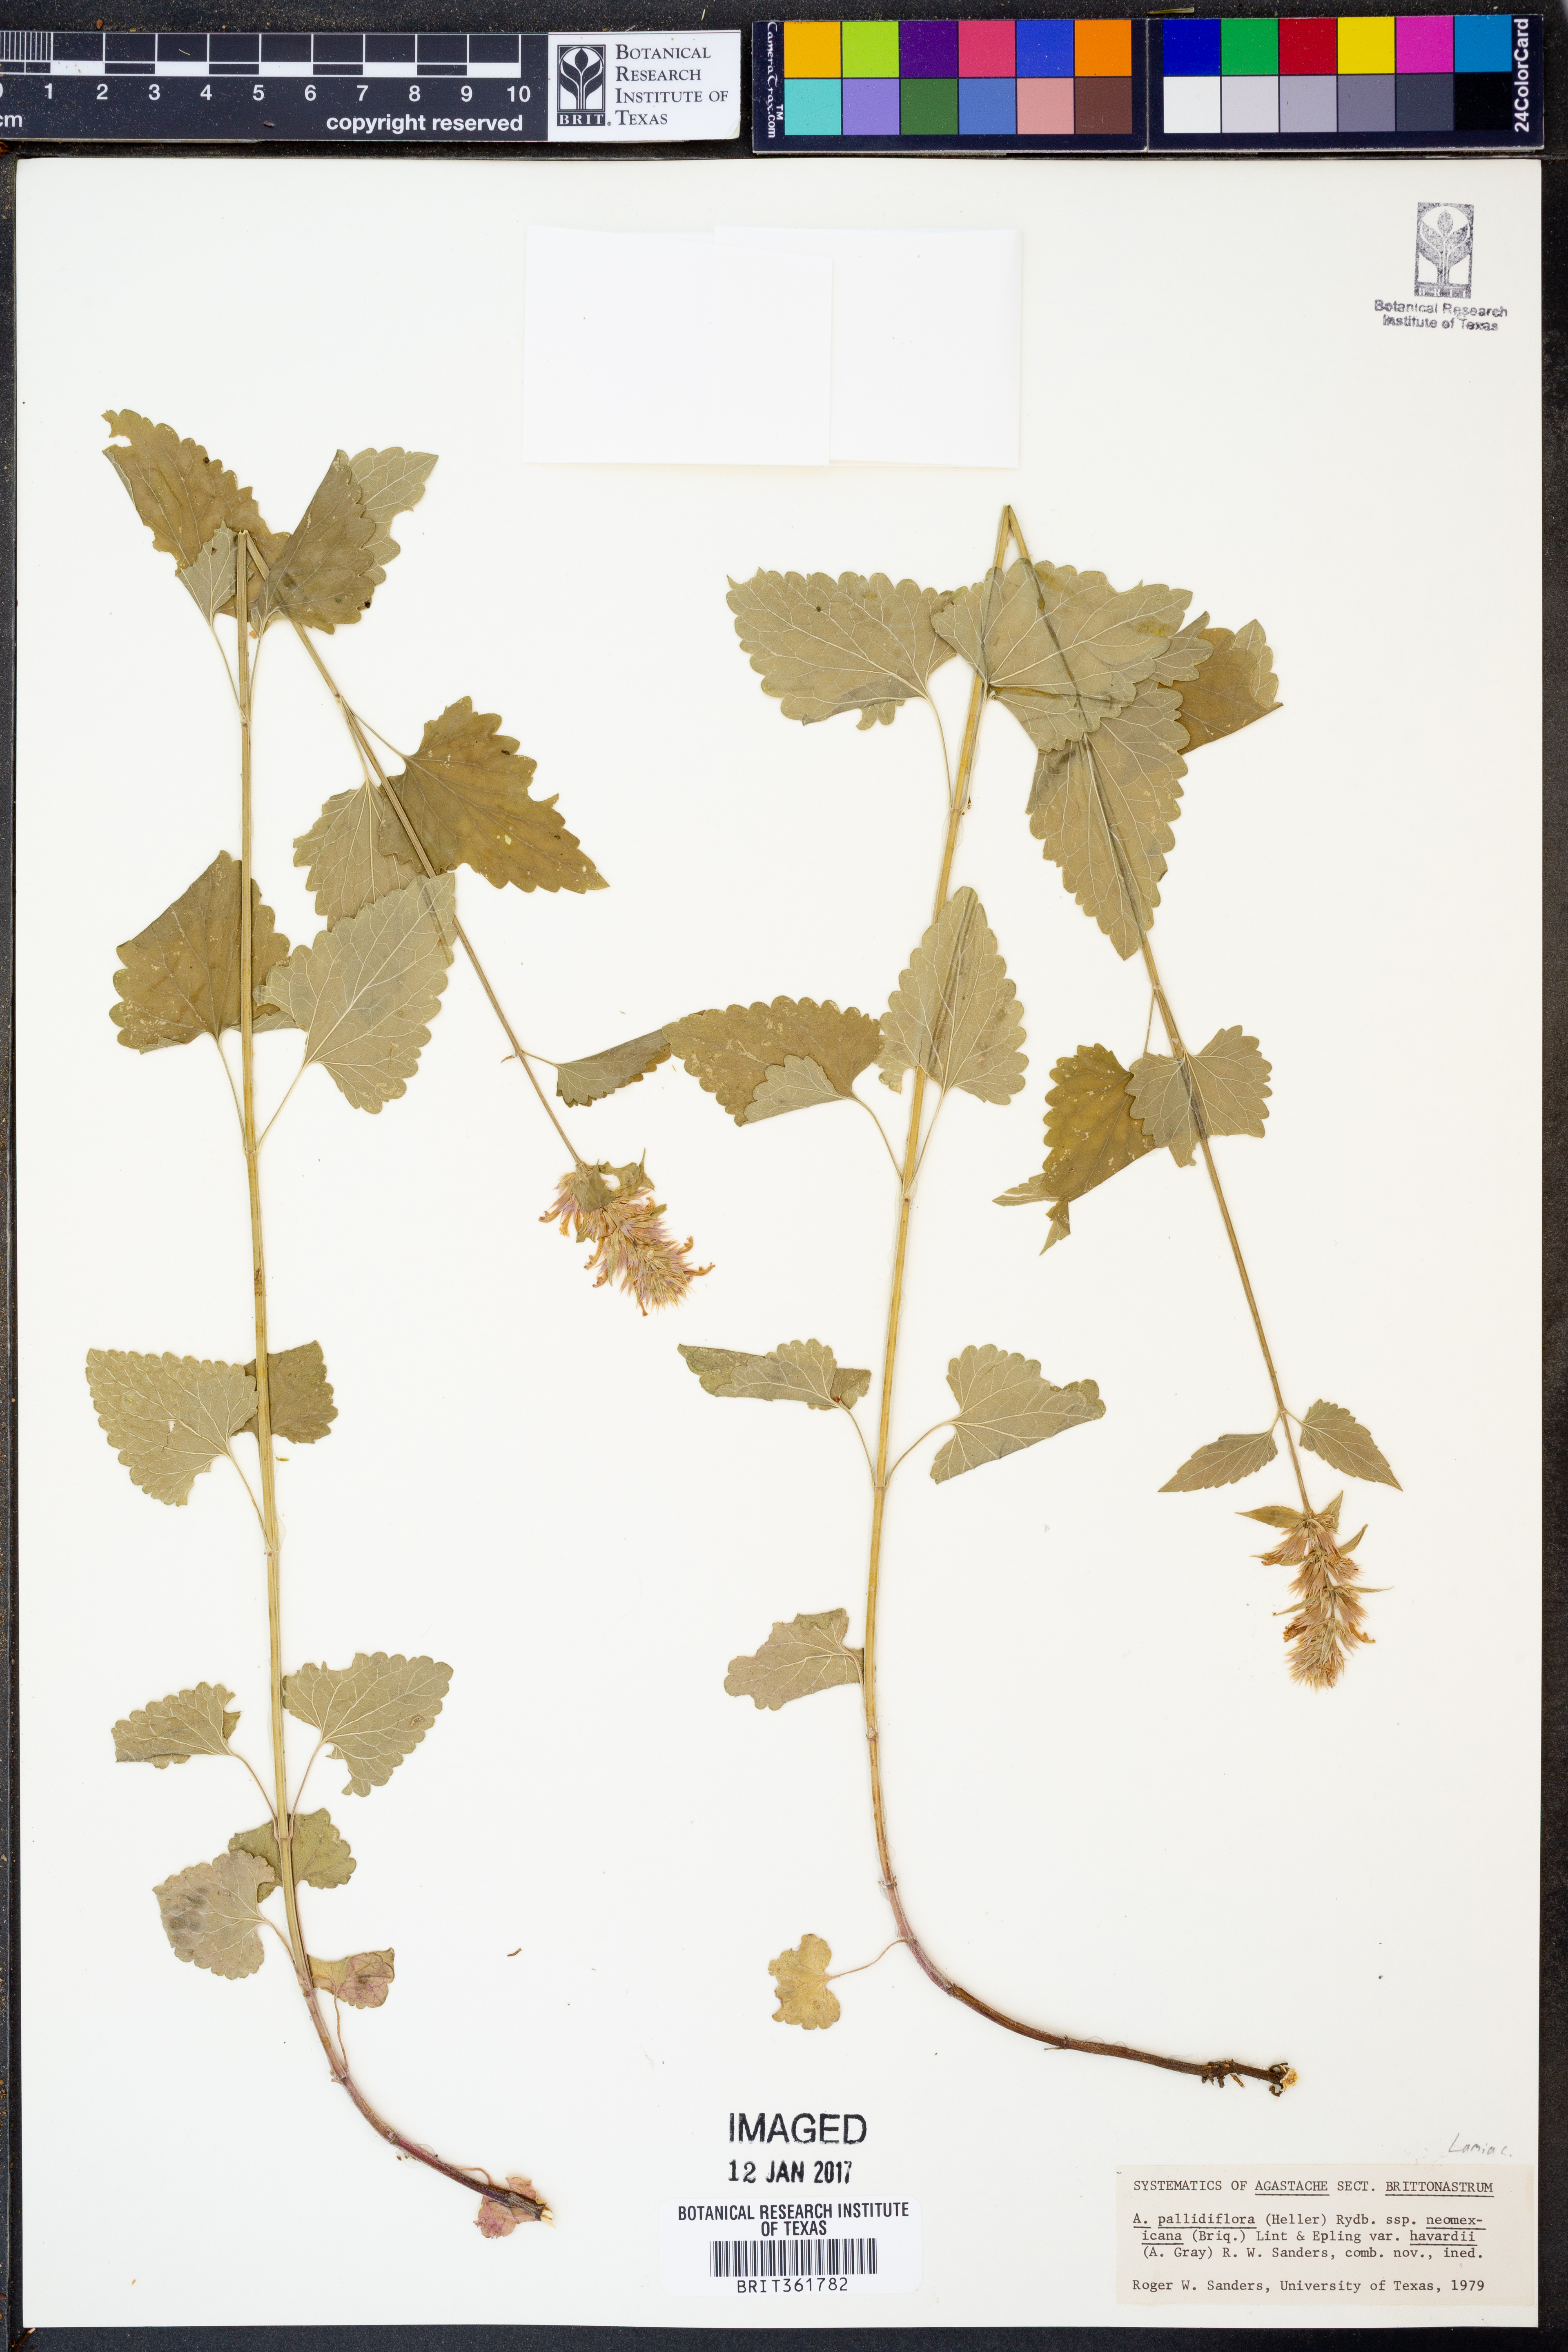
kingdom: Plantae
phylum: Tracheophyta
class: Magnoliopsida
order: Lamiales
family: Lamiaceae
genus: Agastache
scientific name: Agastache pallidiflora
